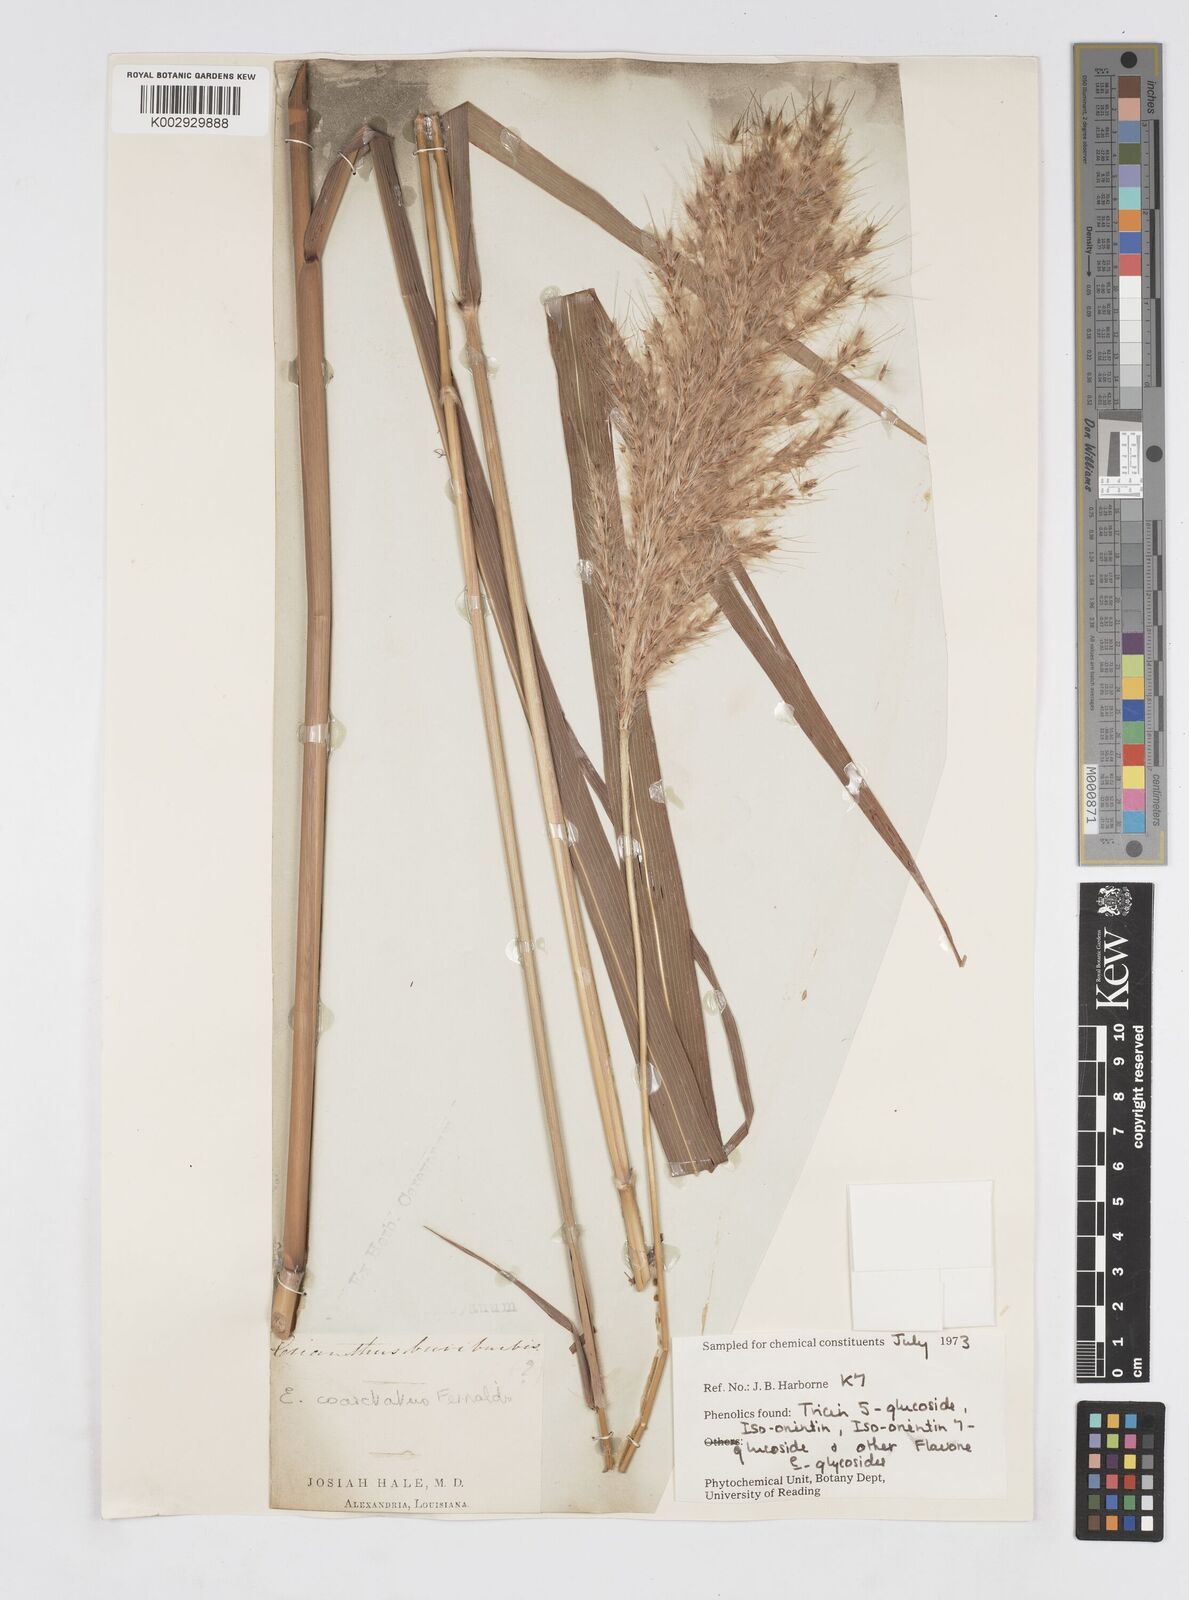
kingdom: Plantae
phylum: Tracheophyta
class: Liliopsida
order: Poales
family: Poaceae
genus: Erianthus
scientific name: Erianthus giganteus
